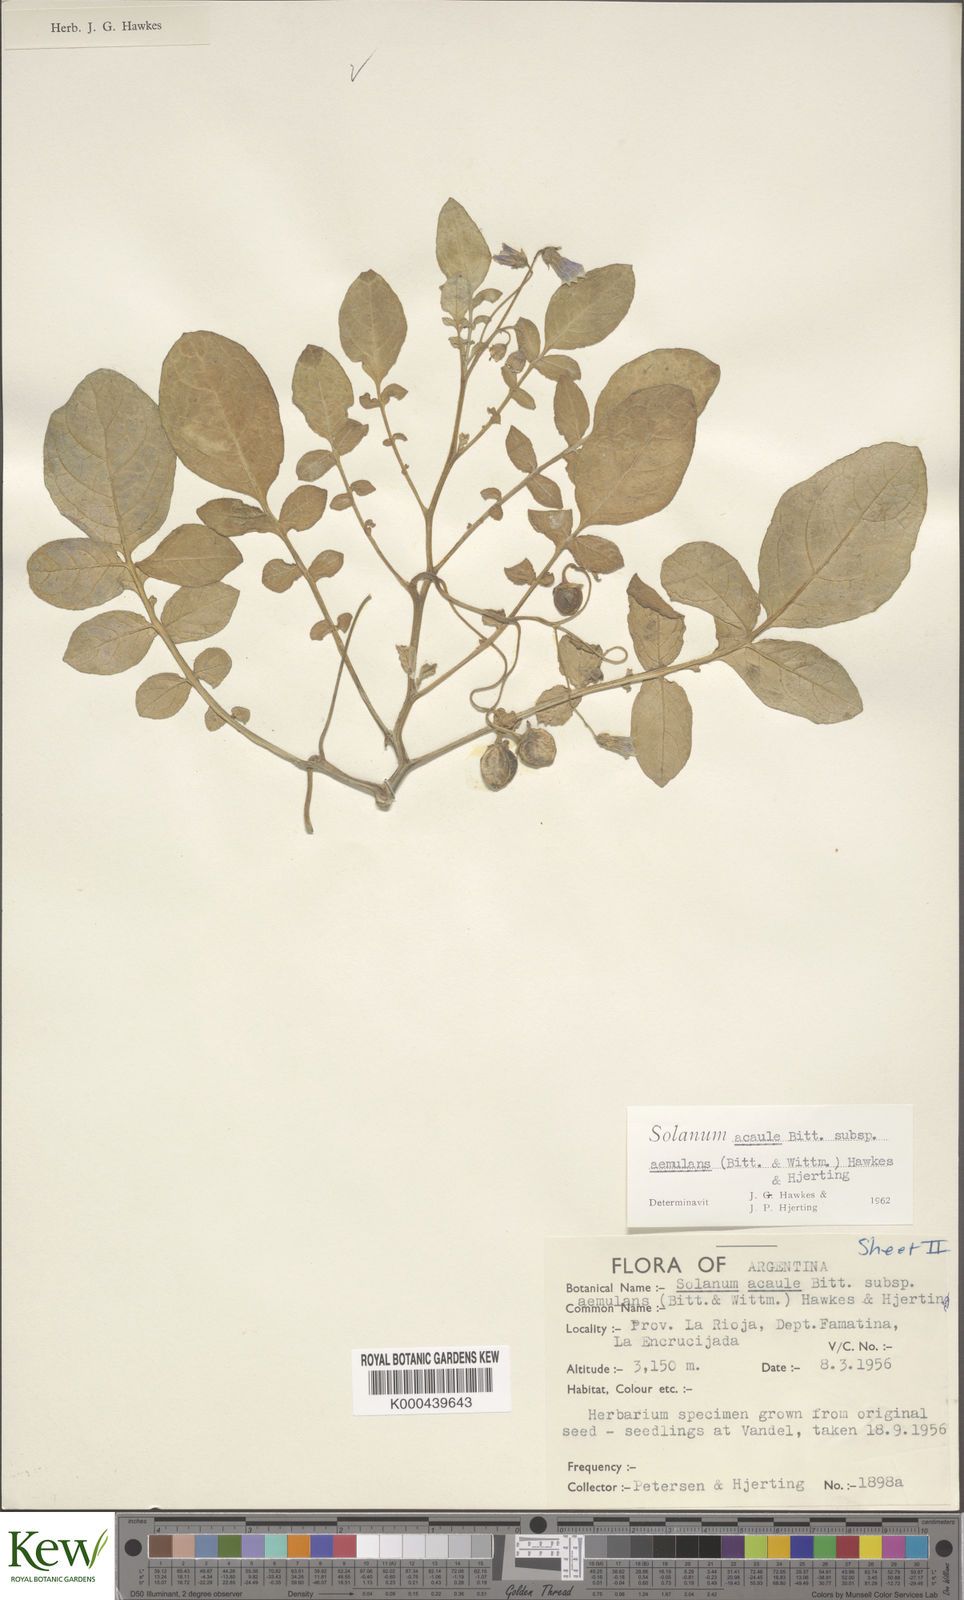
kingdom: Plantae
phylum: Tracheophyta
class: Magnoliopsida
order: Solanales
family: Solanaceae
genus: Solanum
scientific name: Solanum aemulans
